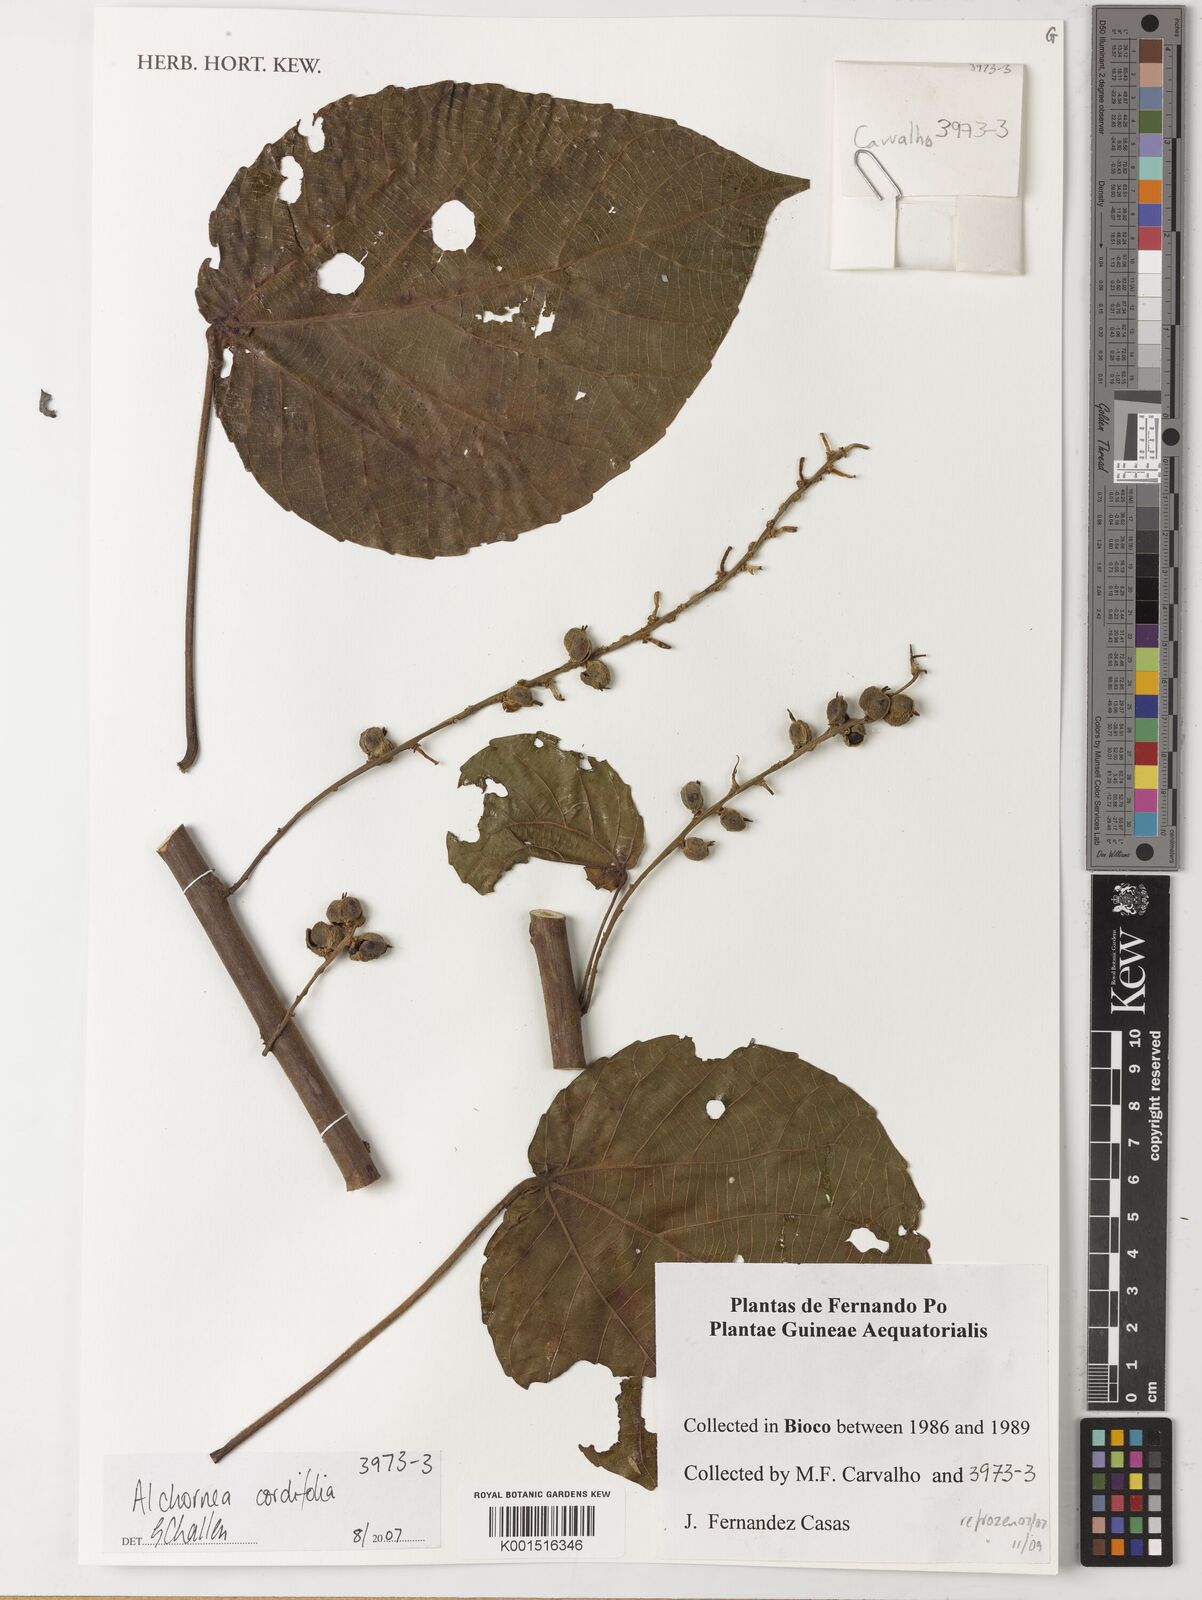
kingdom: Plantae
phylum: Tracheophyta
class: Magnoliopsida
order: Malpighiales
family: Euphorbiaceae
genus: Alchornea
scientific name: Alchornea cordifolia
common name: Christmasbush
